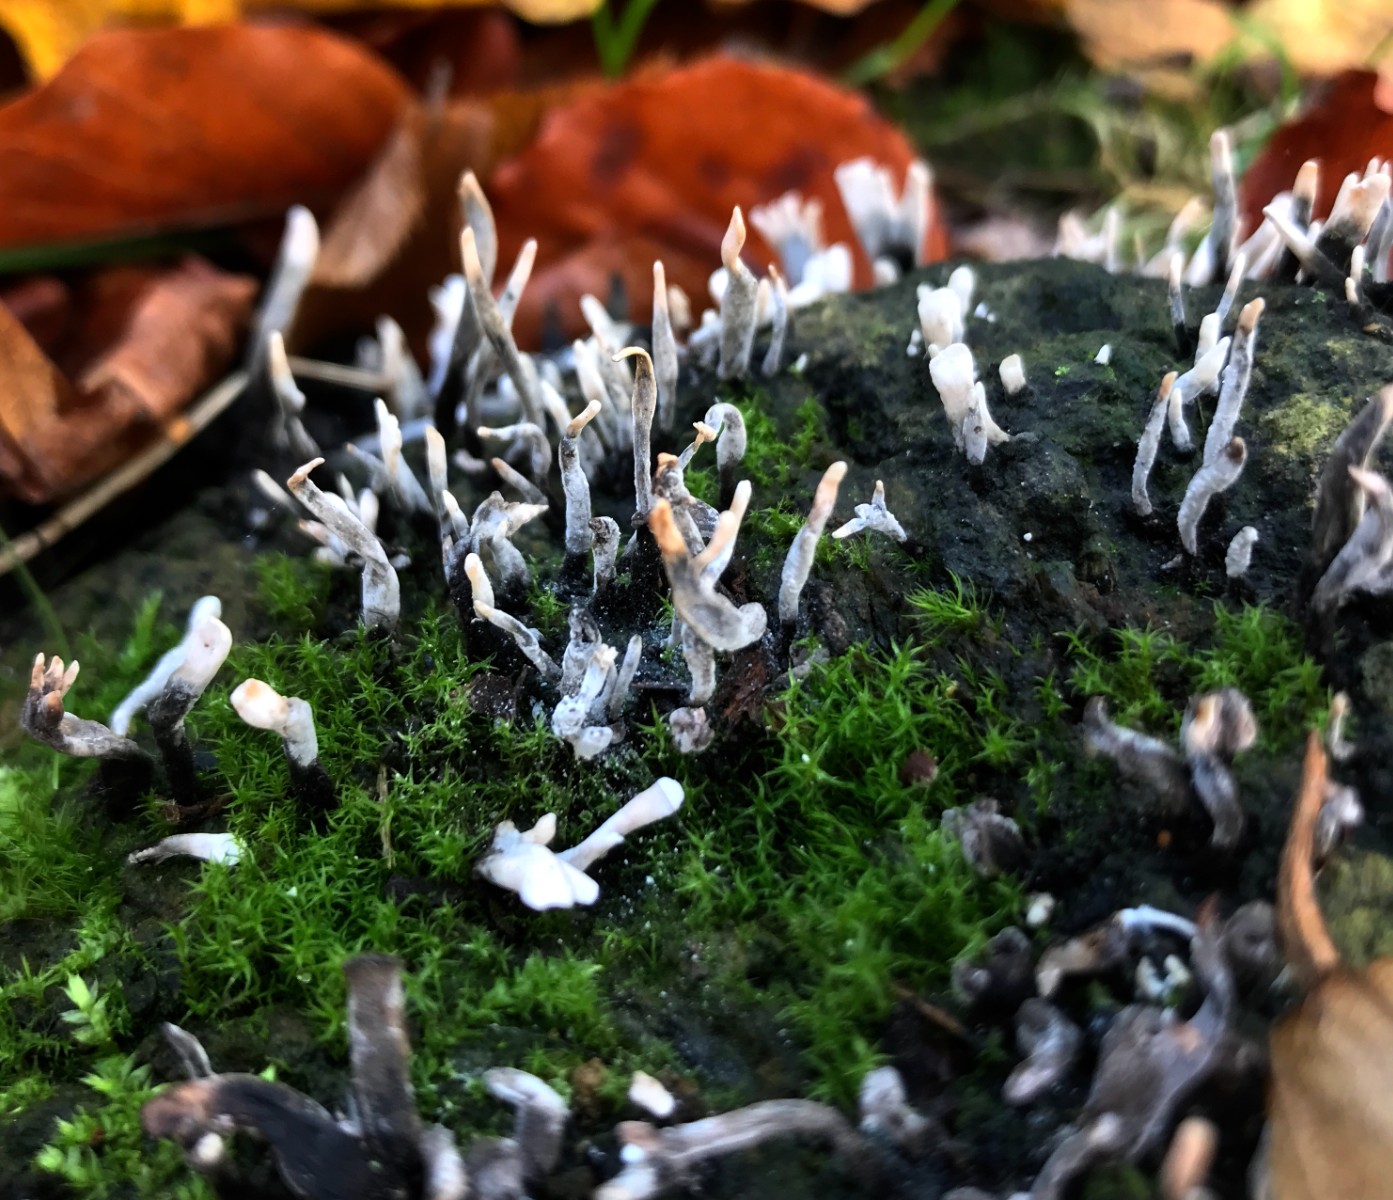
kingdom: Fungi
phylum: Ascomycota
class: Sordariomycetes
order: Xylariales
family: Xylariaceae
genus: Xylaria
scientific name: Xylaria hypoxylon
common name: grenet stødsvamp
